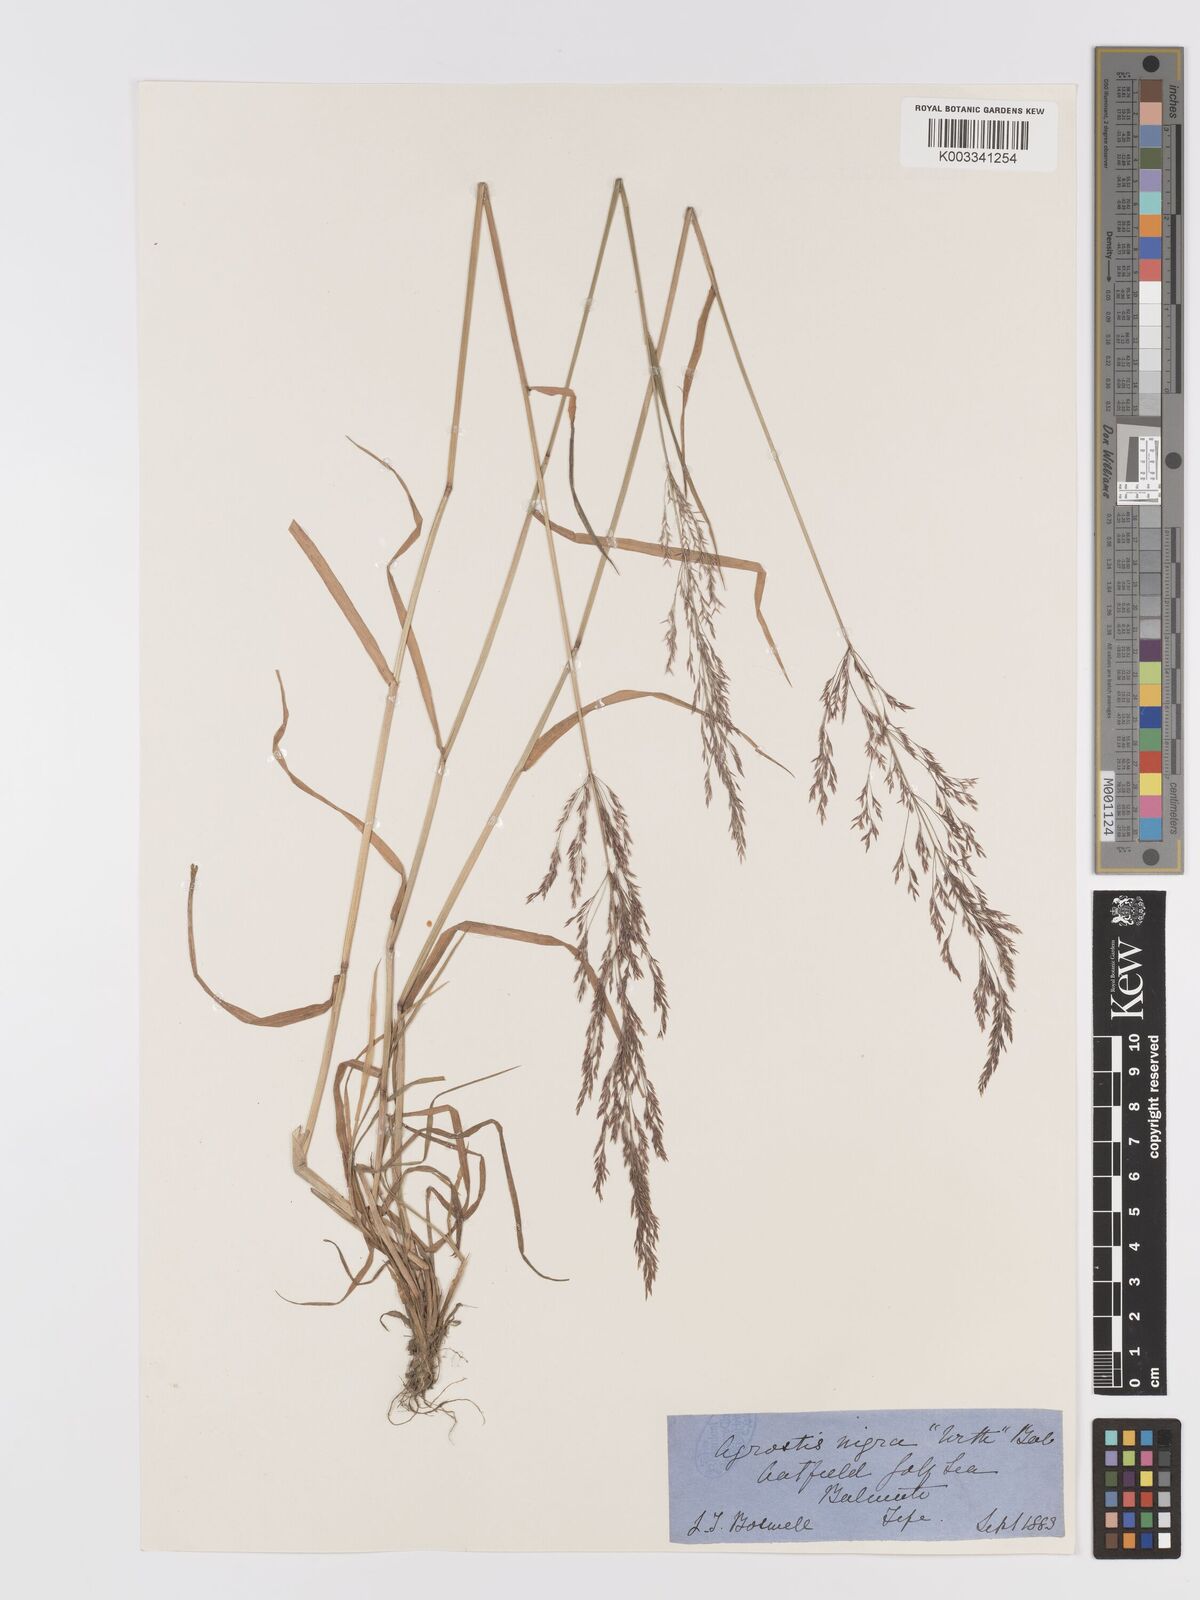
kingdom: Plantae
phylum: Tracheophyta
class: Liliopsida
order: Poales
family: Poaceae
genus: Agrostis
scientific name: Agrostis gigantea
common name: Black bent
